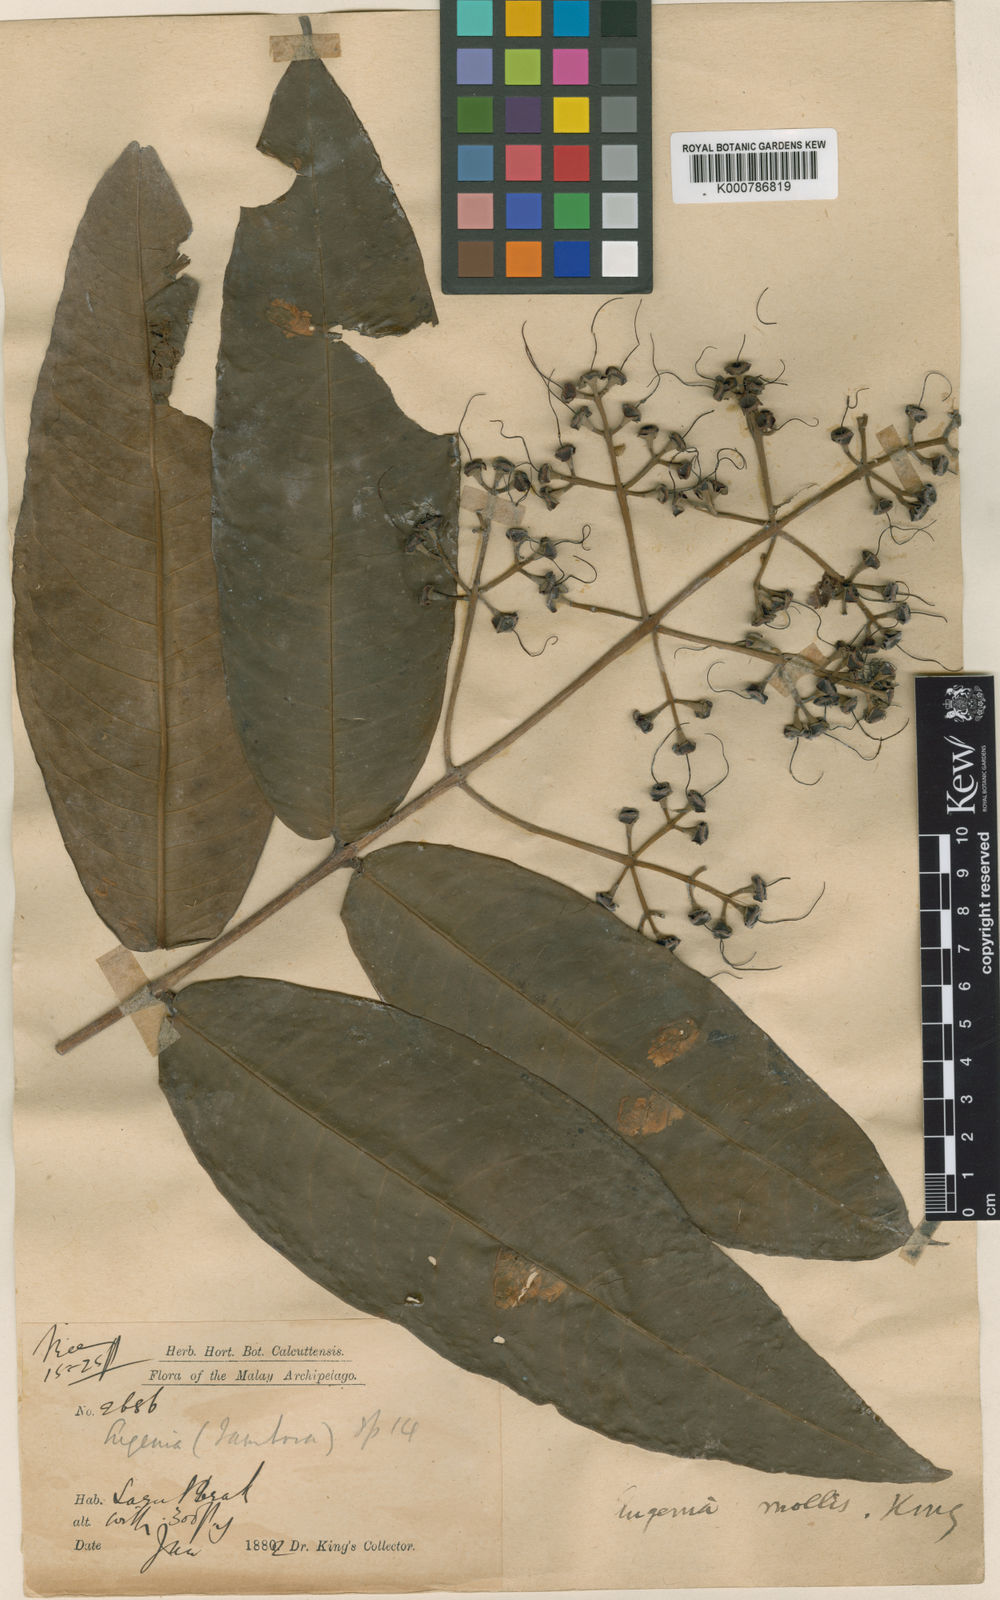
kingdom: Plantae
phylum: Tracheophyta
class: Magnoliopsida
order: Myrtales
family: Myrtaceae
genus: Syzygium
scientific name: Syzygium pseudomolle
